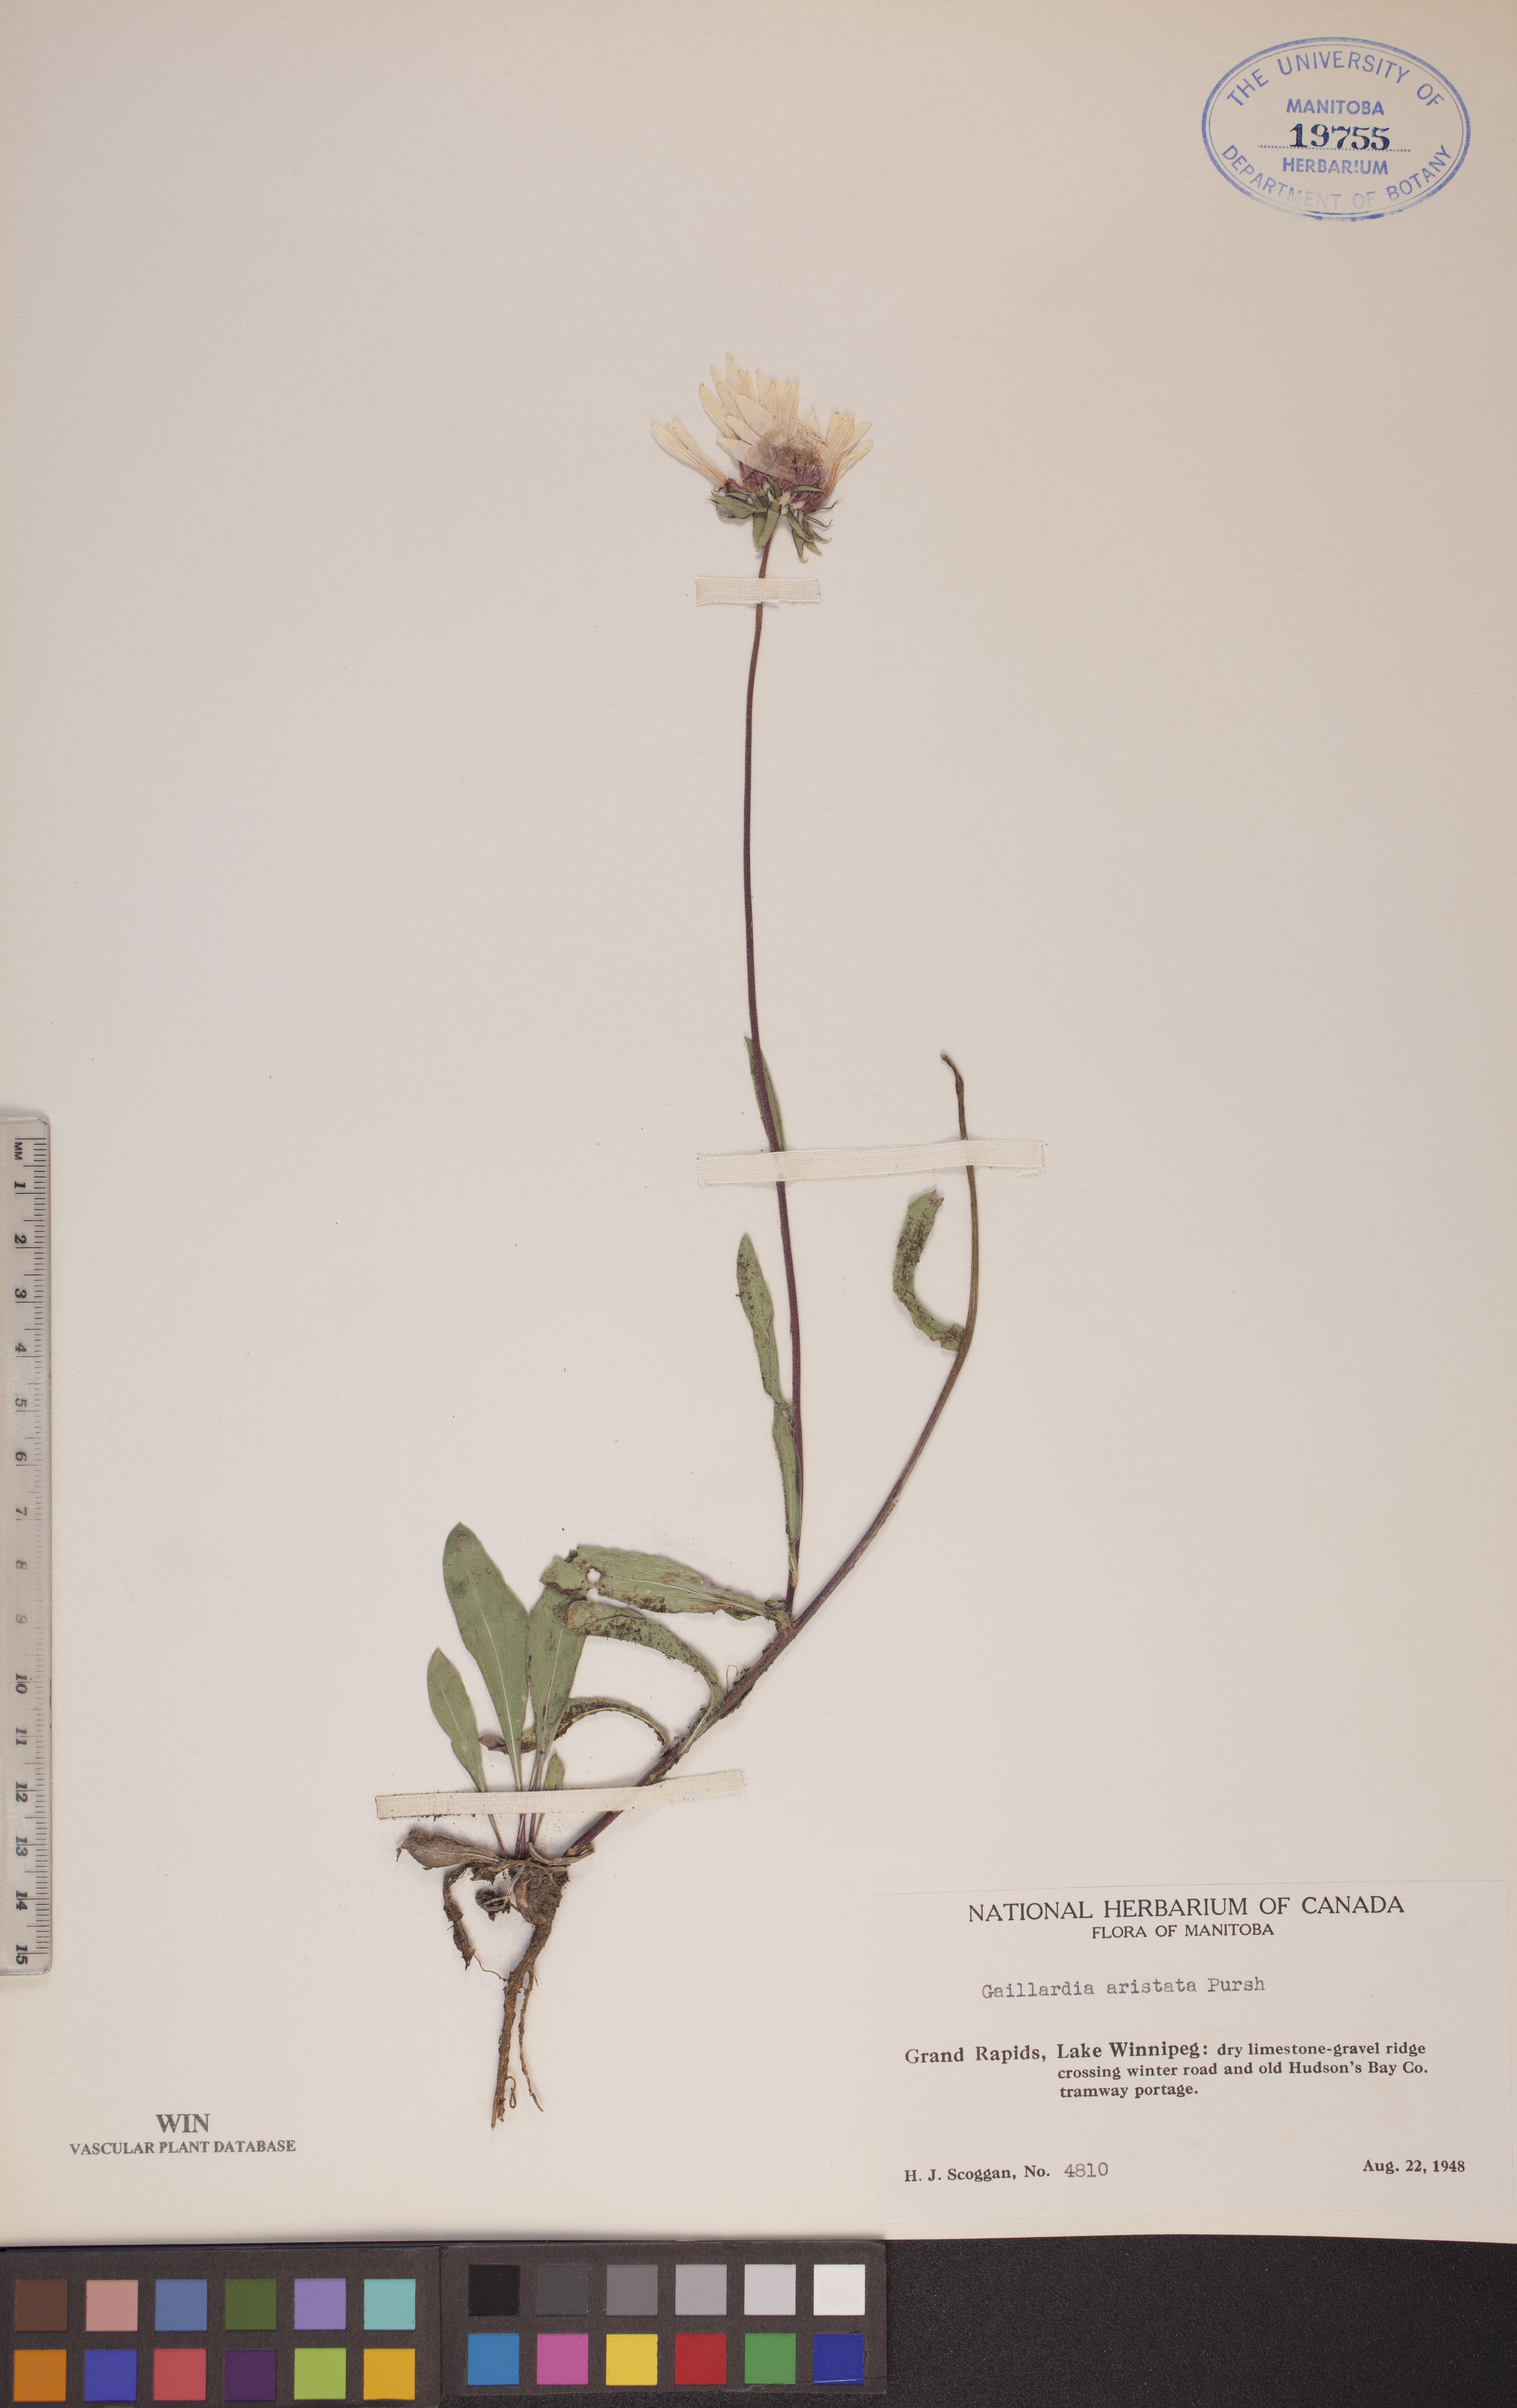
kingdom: Plantae
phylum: Tracheophyta
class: Magnoliopsida
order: Asterales
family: Asteraceae
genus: Gaillardia
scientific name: Gaillardia aristata
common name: Blanket-flower
